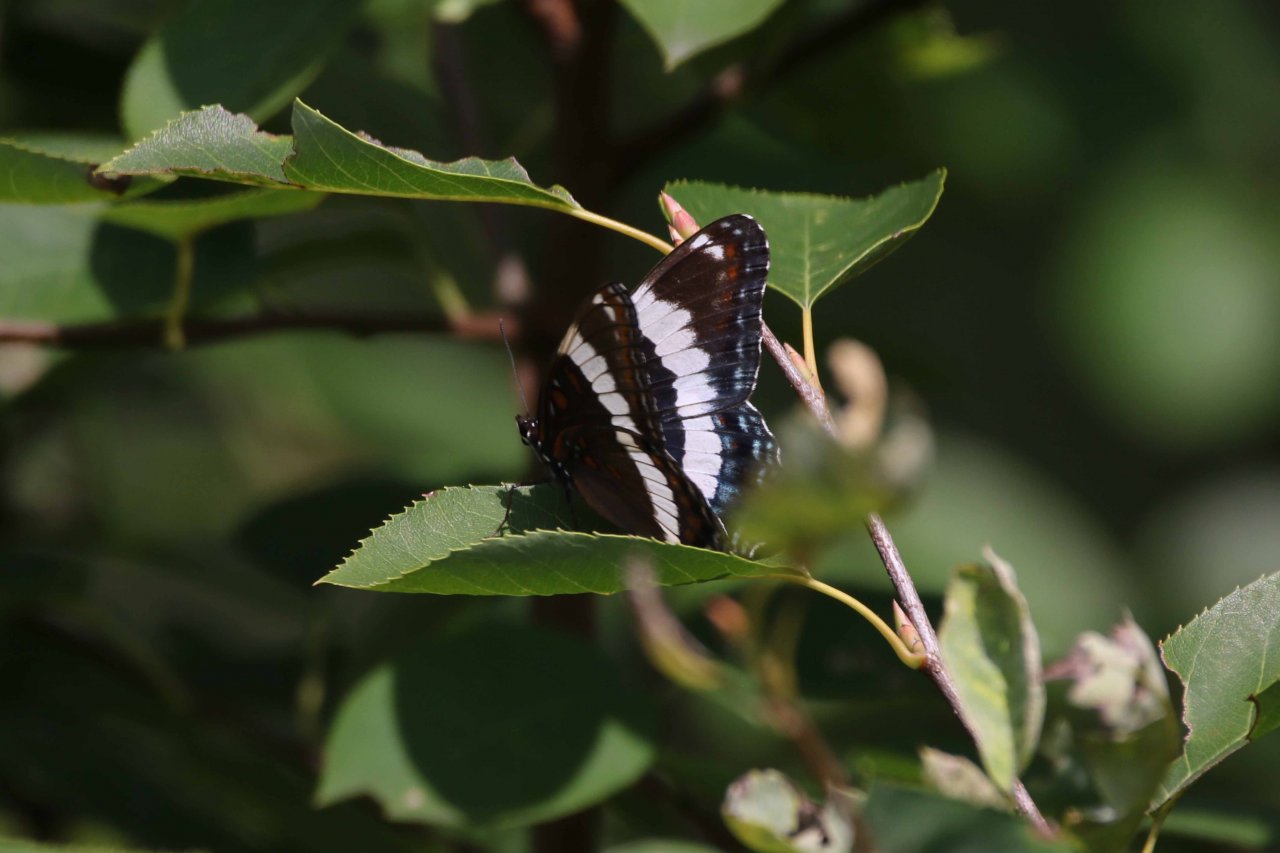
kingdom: Animalia
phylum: Arthropoda
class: Insecta
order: Lepidoptera
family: Nymphalidae
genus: Limenitis
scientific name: Limenitis arthemis
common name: Red-spotted Admiral
